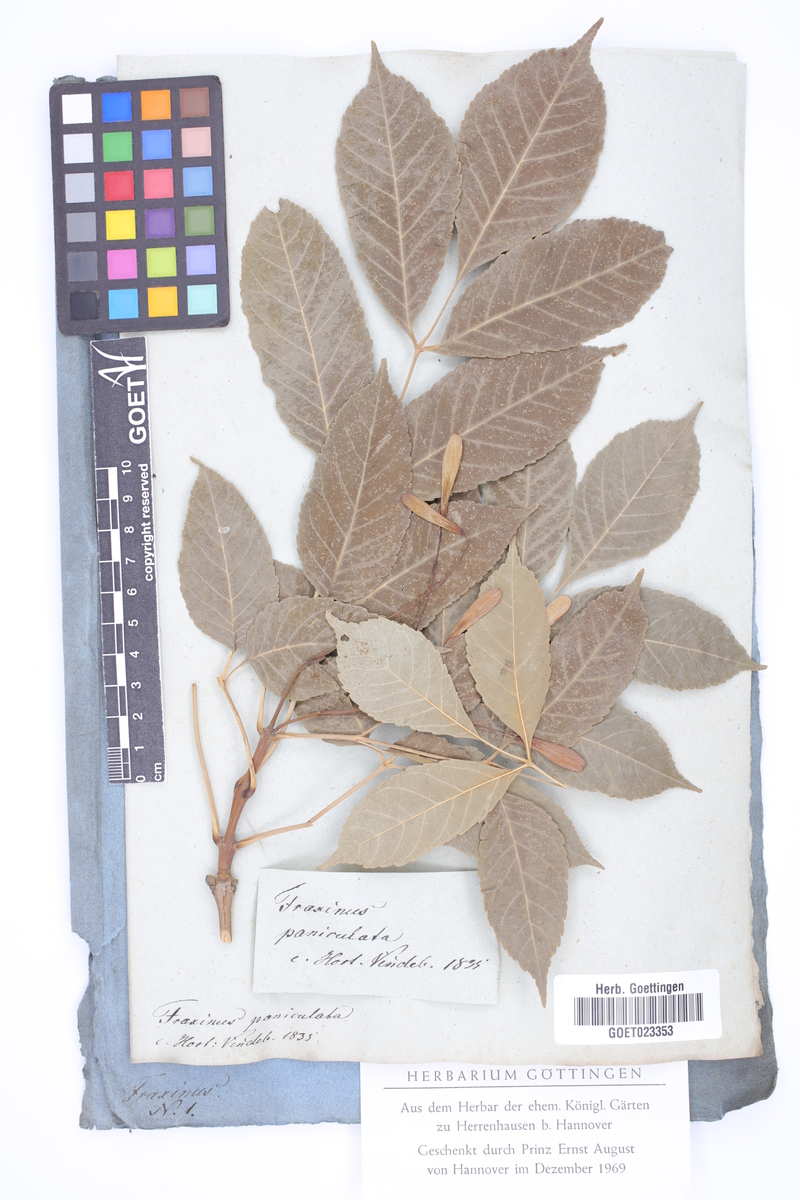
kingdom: Plantae
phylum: Tracheophyta
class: Magnoliopsida
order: Lamiales
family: Oleaceae
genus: Fraxinus
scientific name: Fraxinus ornus
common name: Manna ash
